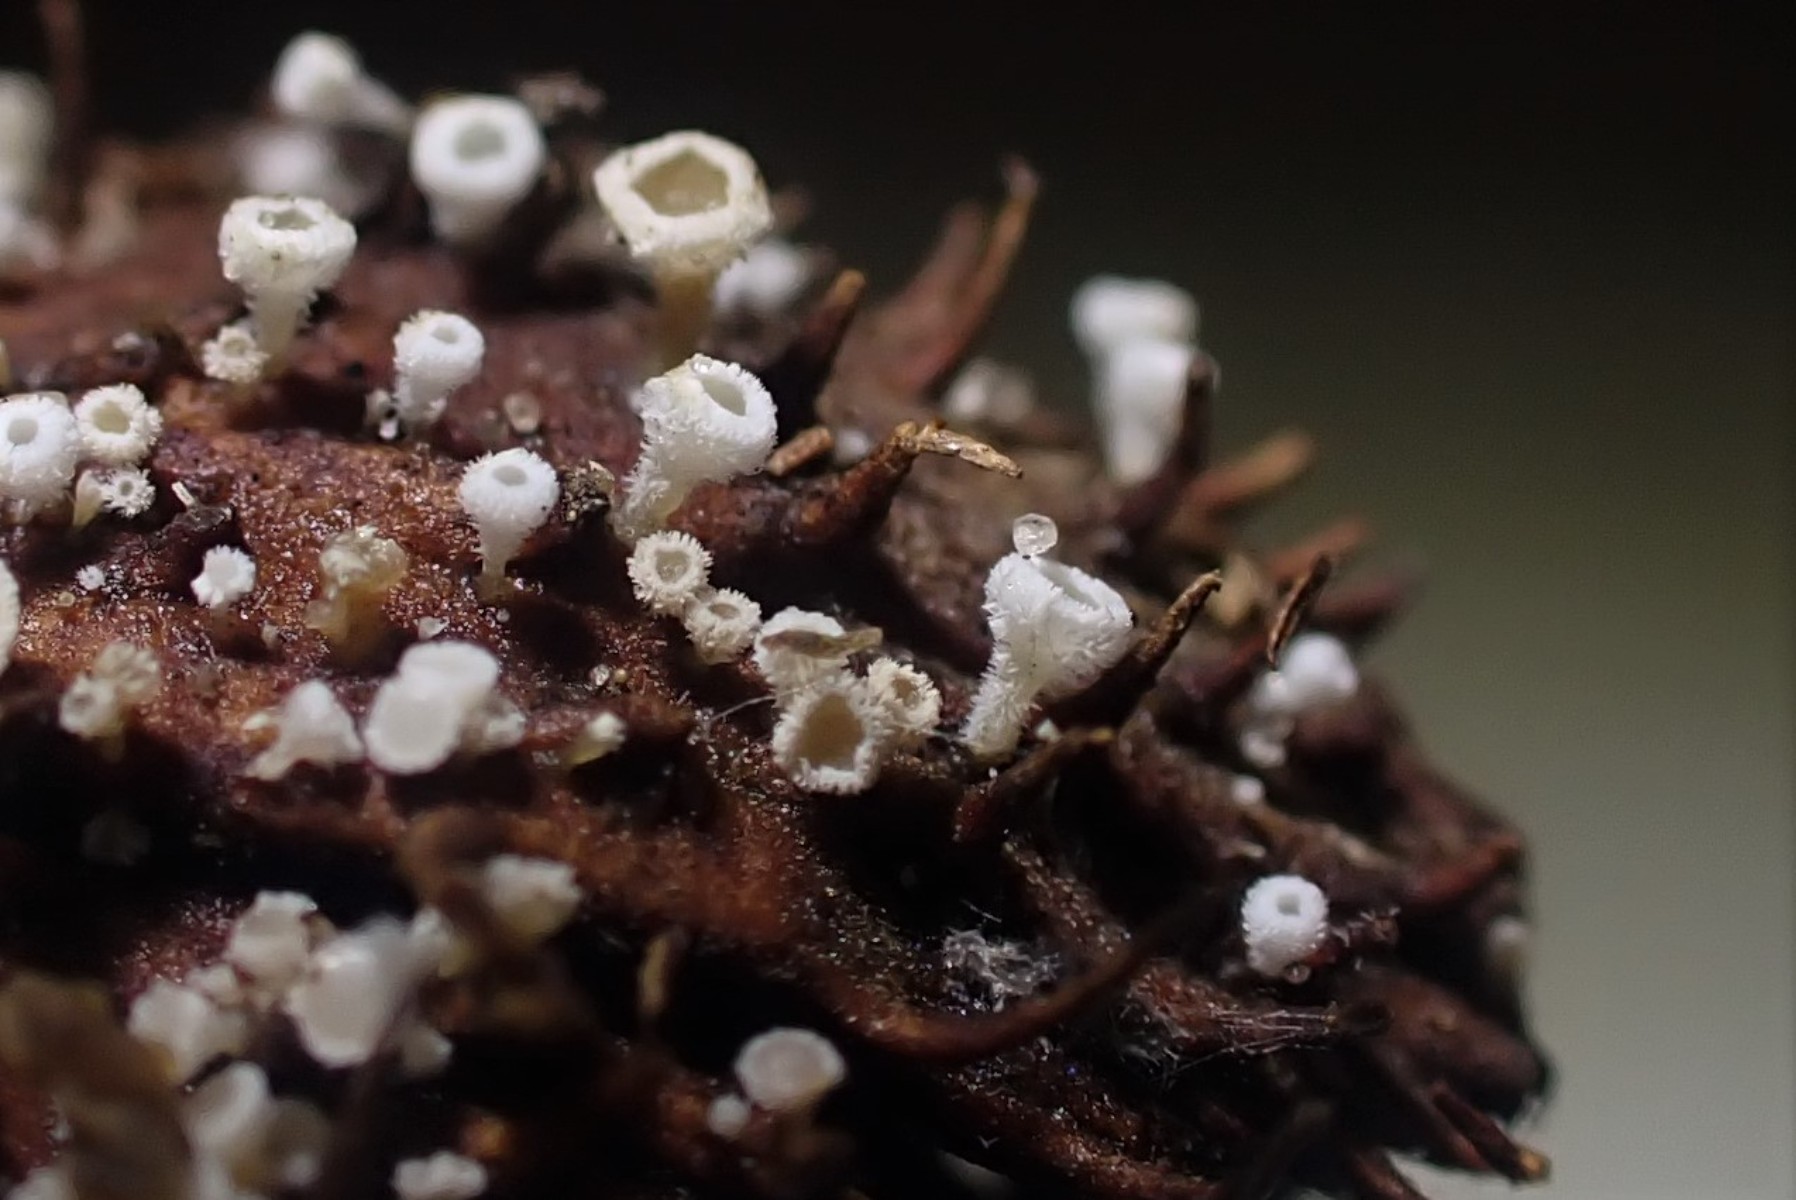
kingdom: Fungi
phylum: Ascomycota
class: Leotiomycetes
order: Helotiales
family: Lachnaceae
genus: Lachnum
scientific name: Lachnum virgineum
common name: jomfru-frynseskive
